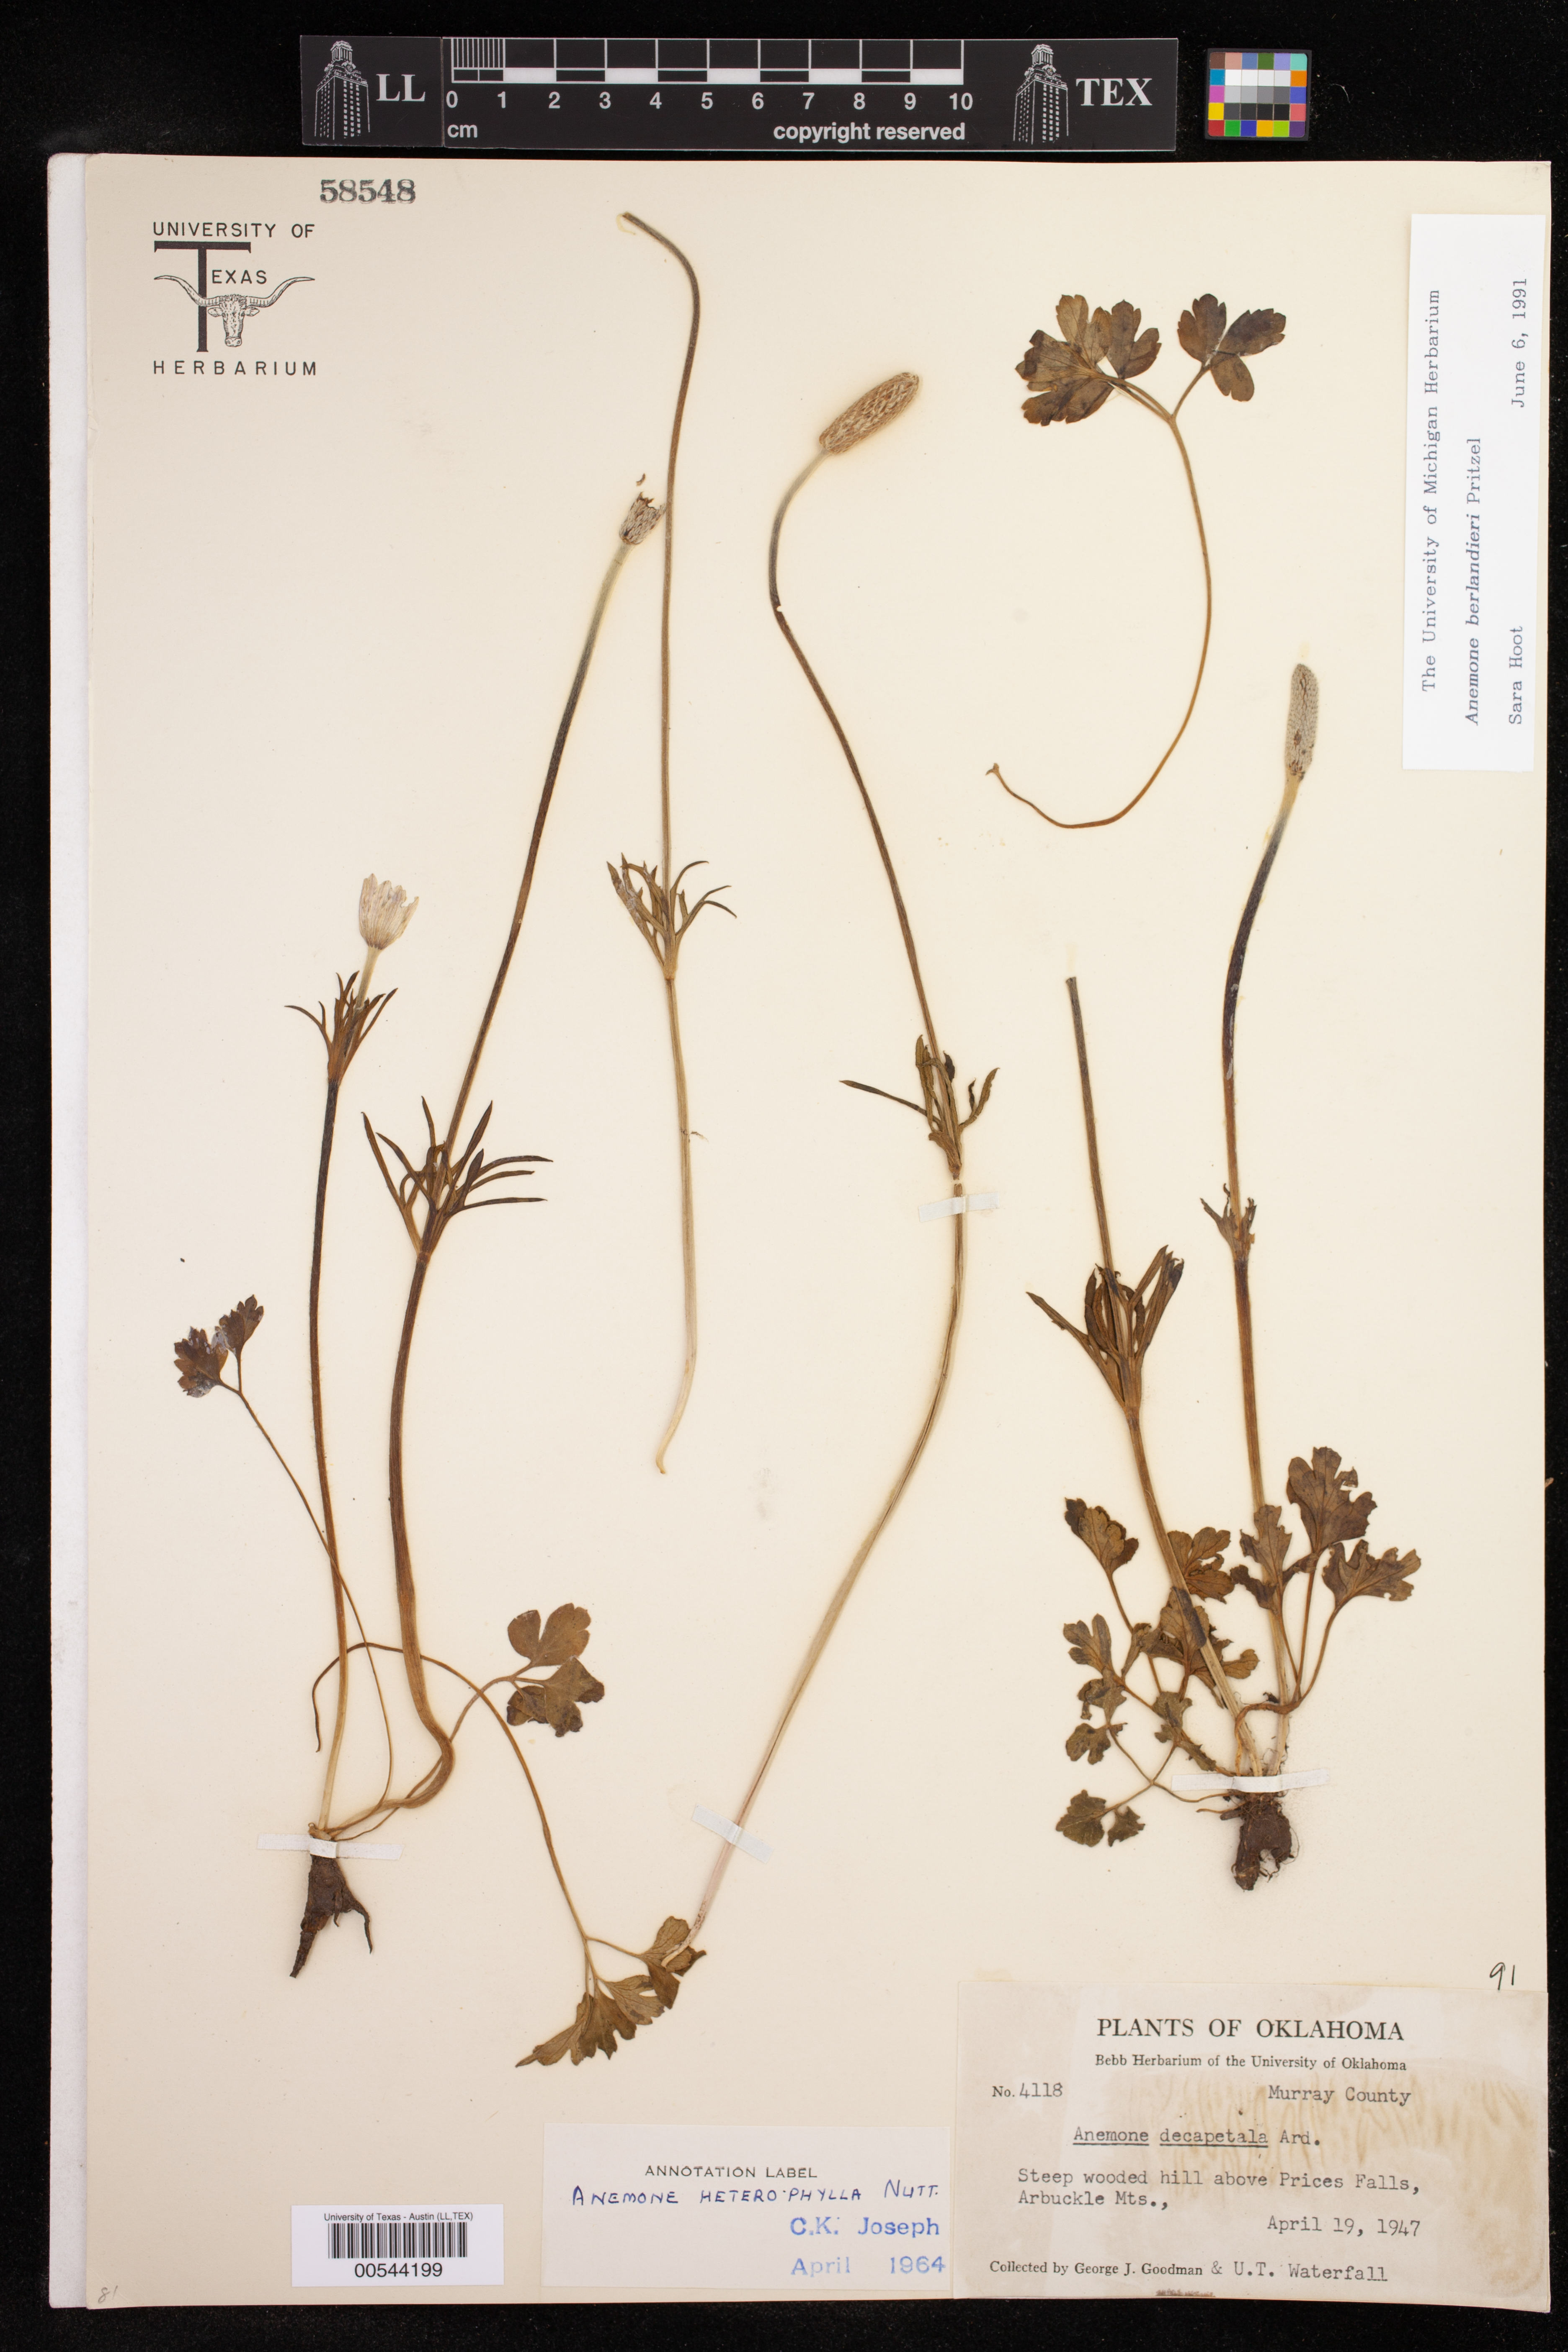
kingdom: Plantae
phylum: Tracheophyta
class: Magnoliopsida
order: Ranunculales
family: Ranunculaceae
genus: Anemone
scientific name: Anemone berlandieri
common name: Ten-petal anemone
